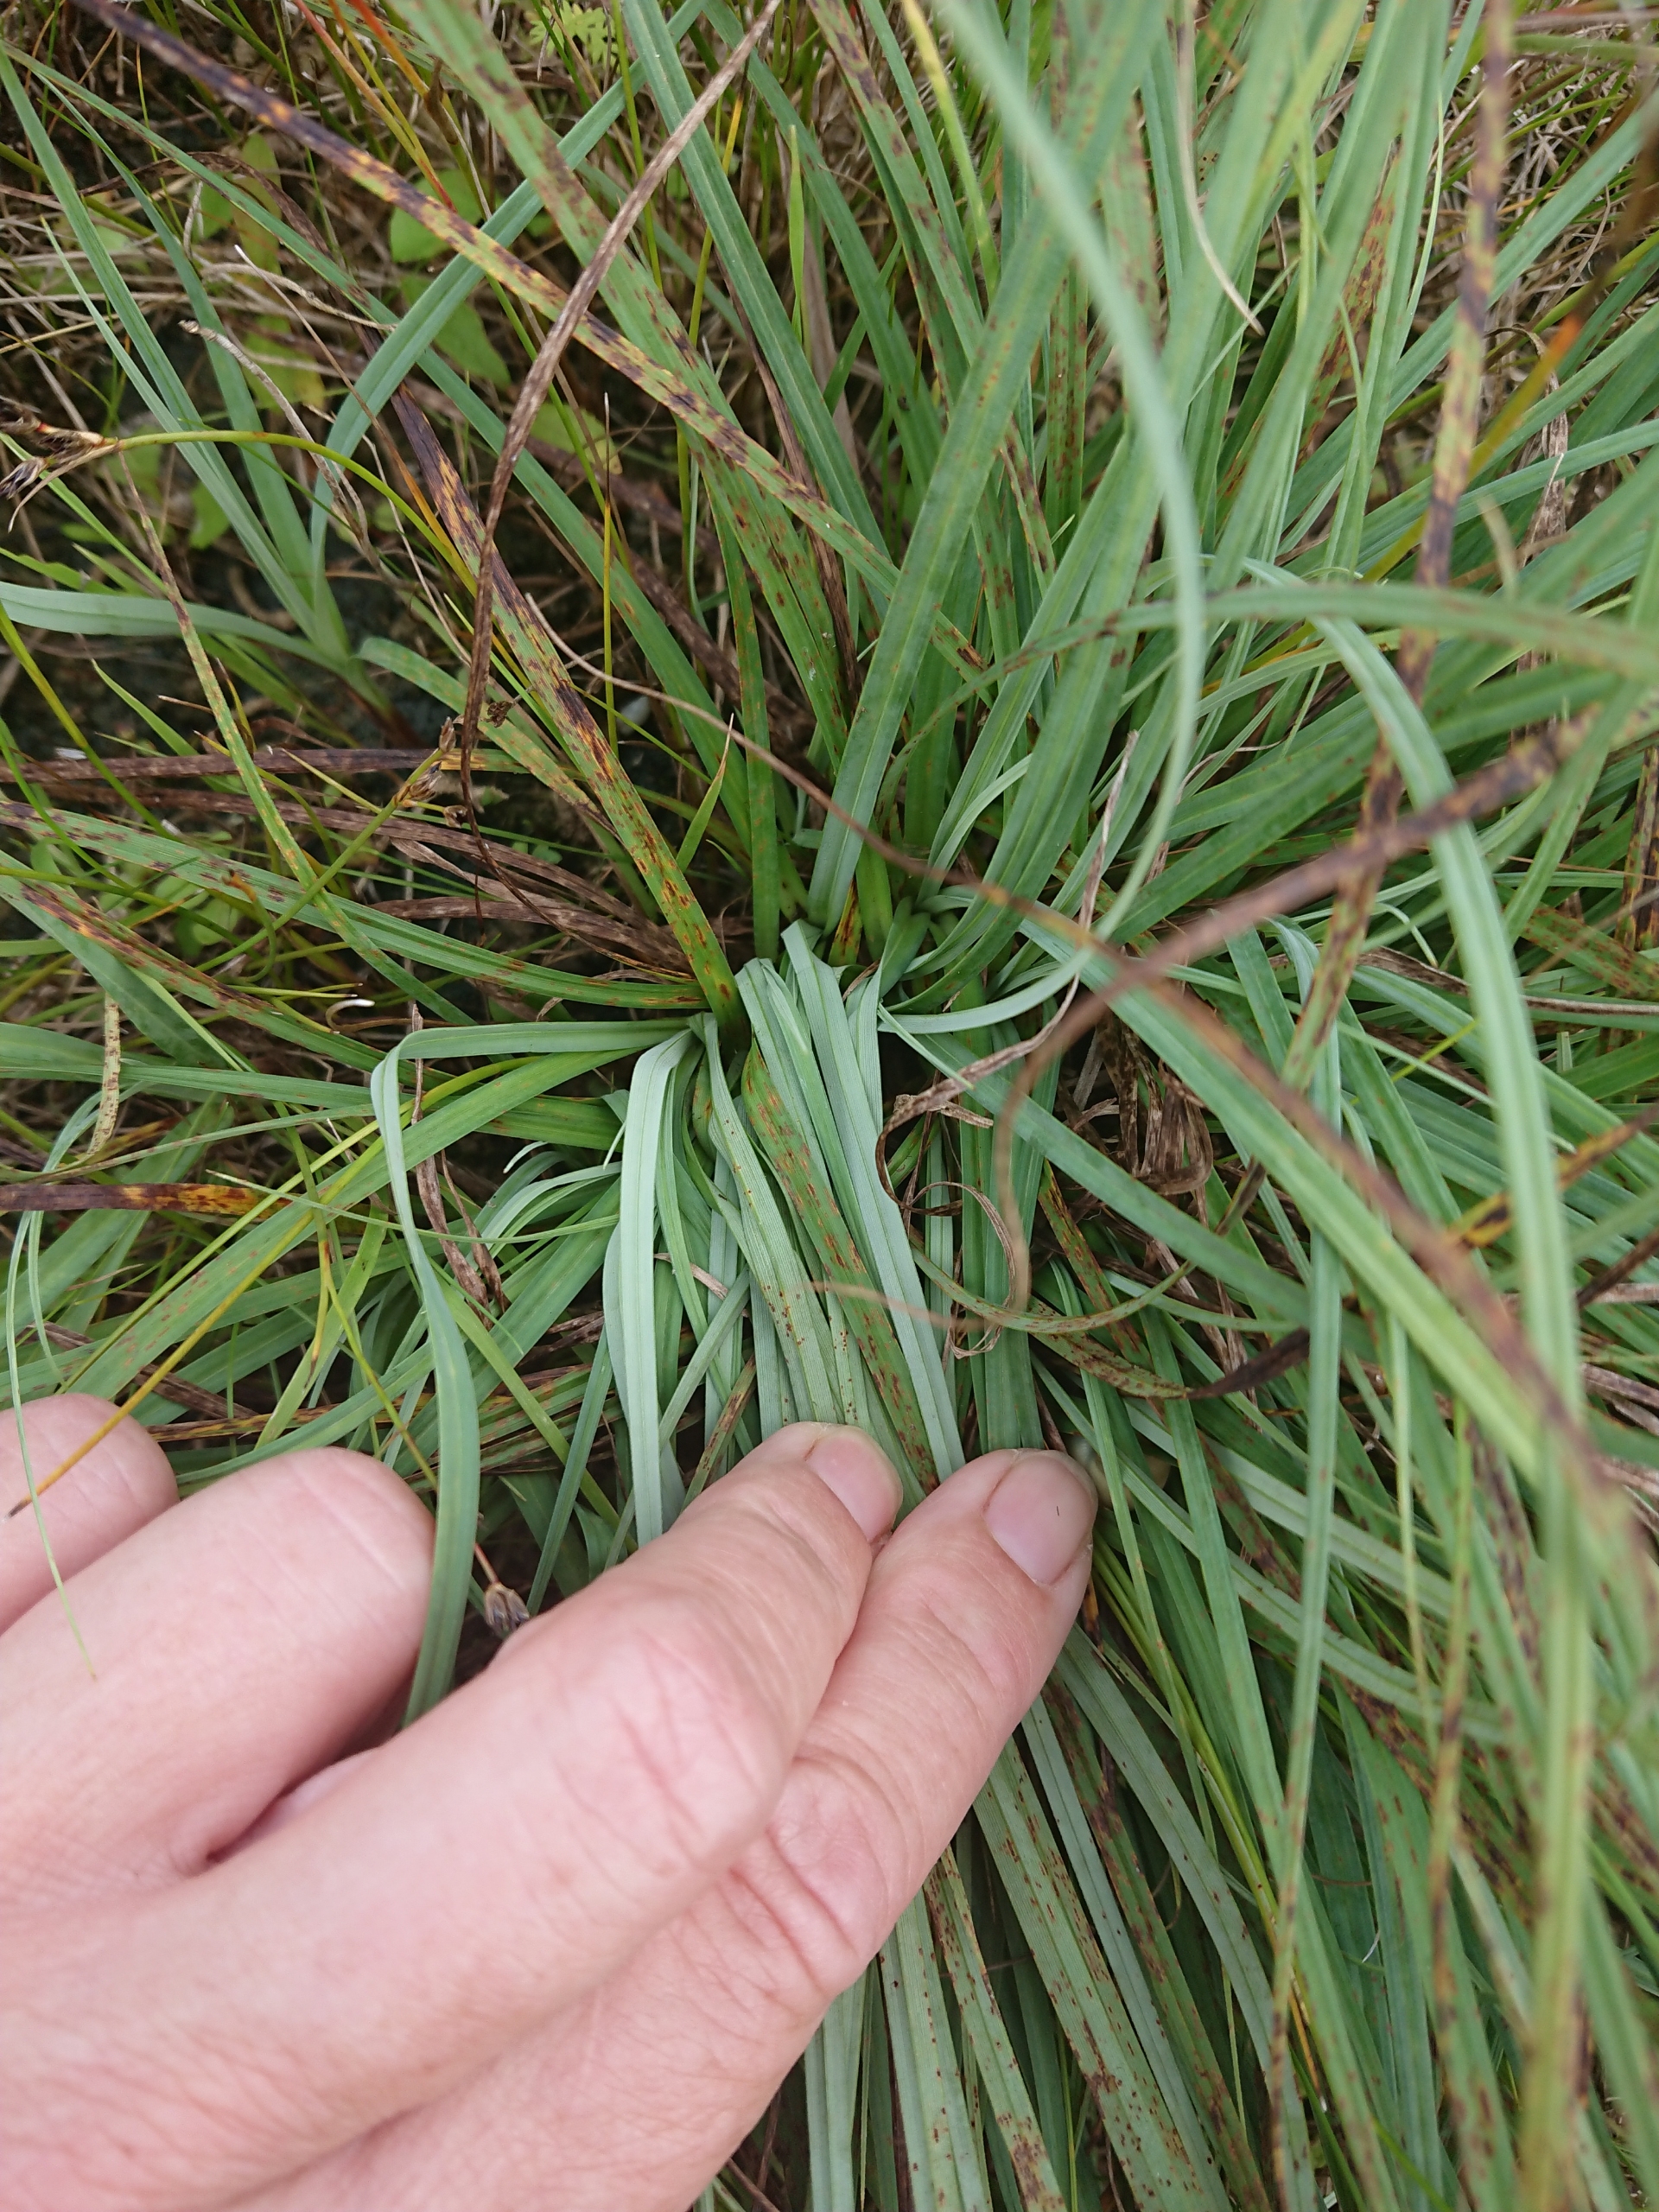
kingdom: Plantae
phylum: Tracheophyta
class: Liliopsida
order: Poales
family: Cyperaceae
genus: Carex
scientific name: Carex flacca
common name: Blågrøn star
